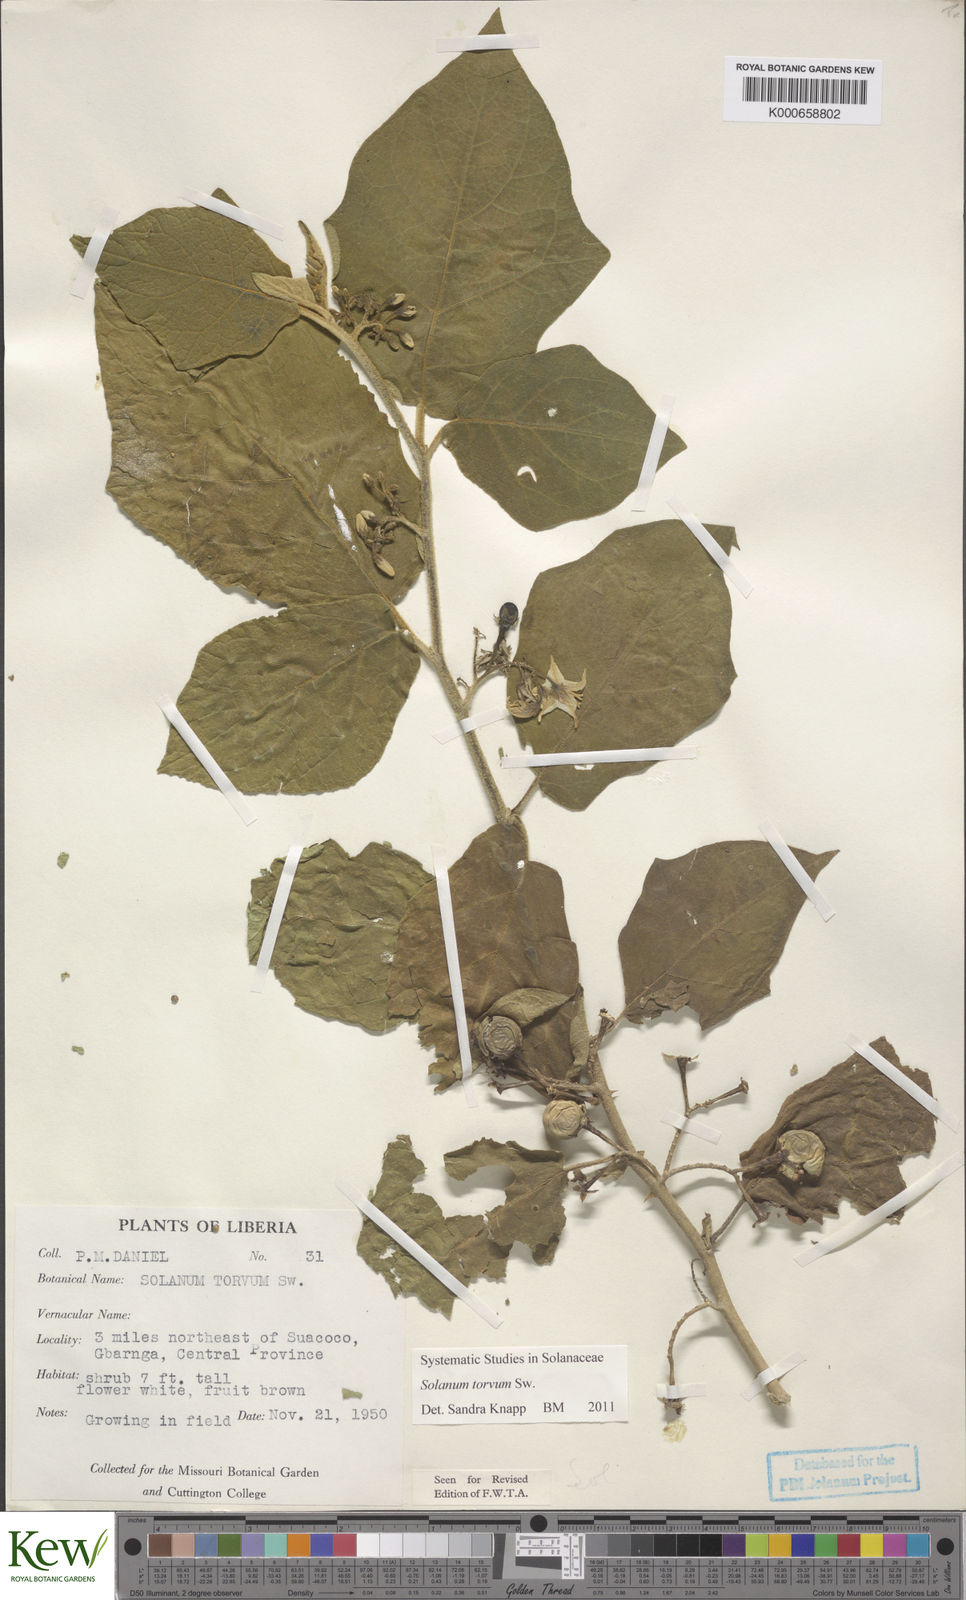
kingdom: Plantae
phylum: Tracheophyta
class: Magnoliopsida
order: Solanales
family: Solanaceae
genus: Solanum
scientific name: Solanum torvum
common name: Turkey berry
